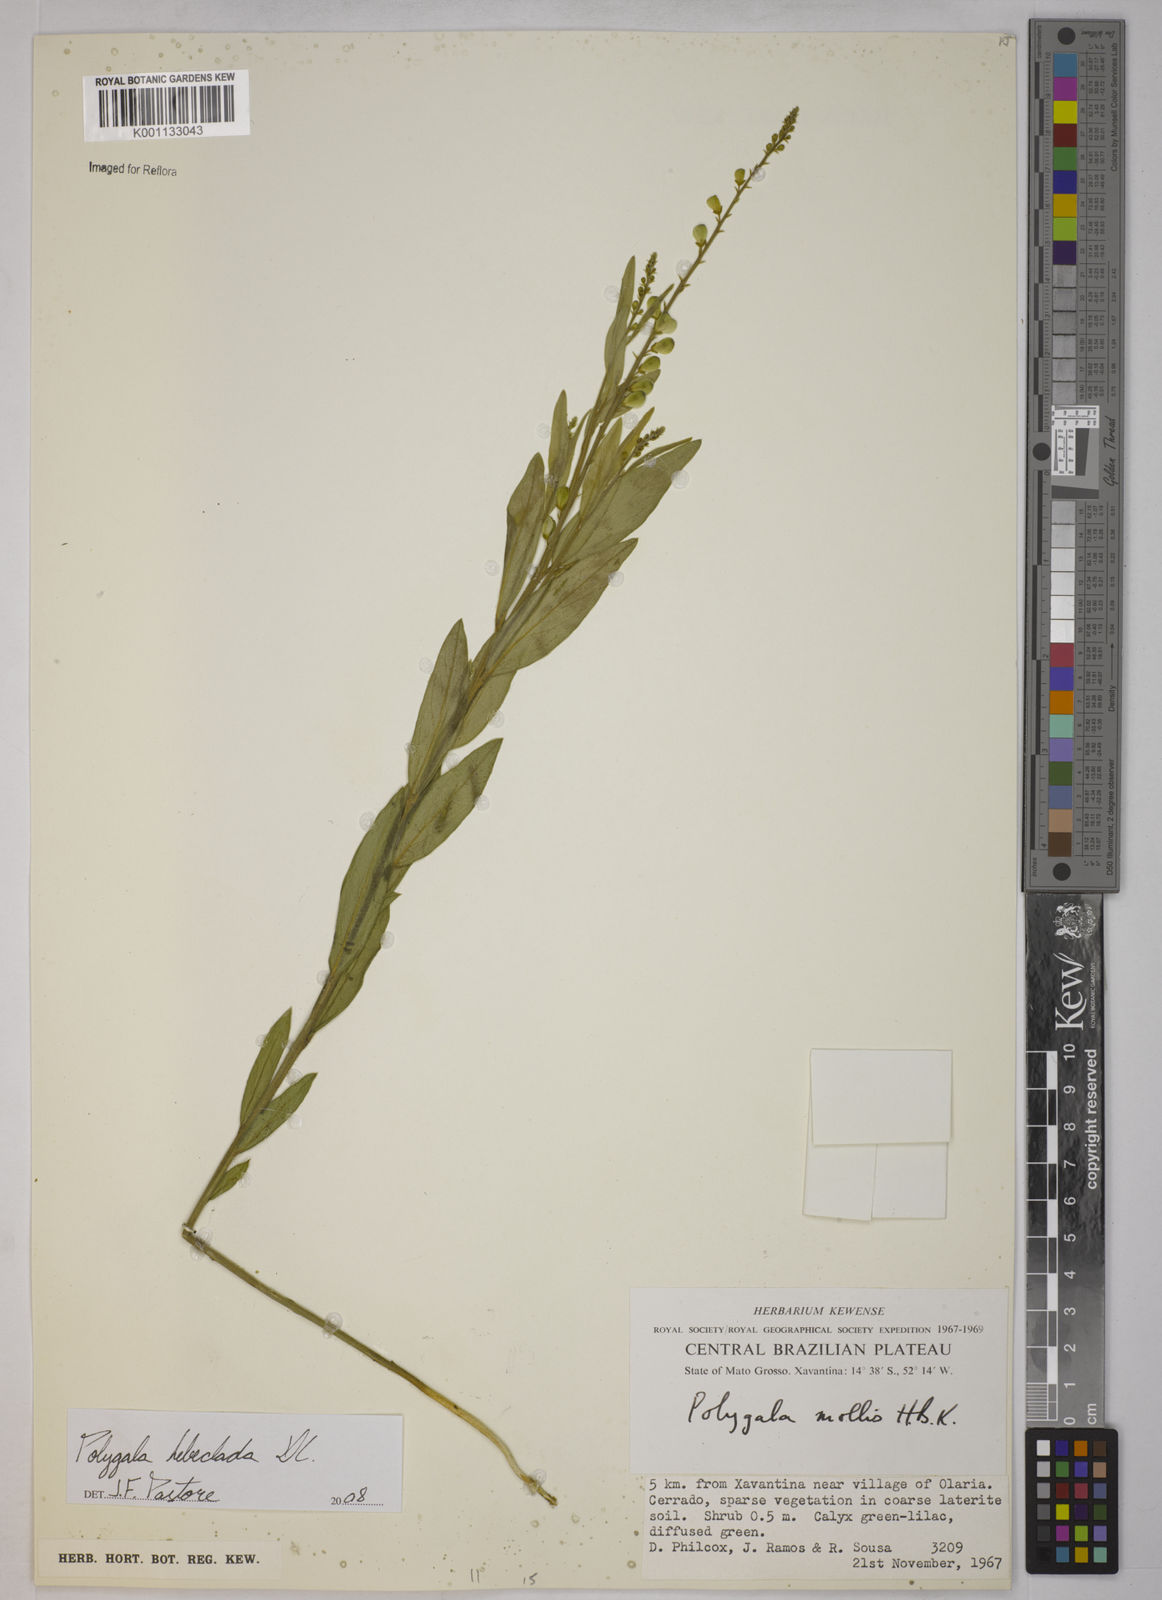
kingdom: Plantae
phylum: Tracheophyta
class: Magnoliopsida
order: Fabales
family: Polygalaceae
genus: Asemeia
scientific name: Asemeia hebeclada
